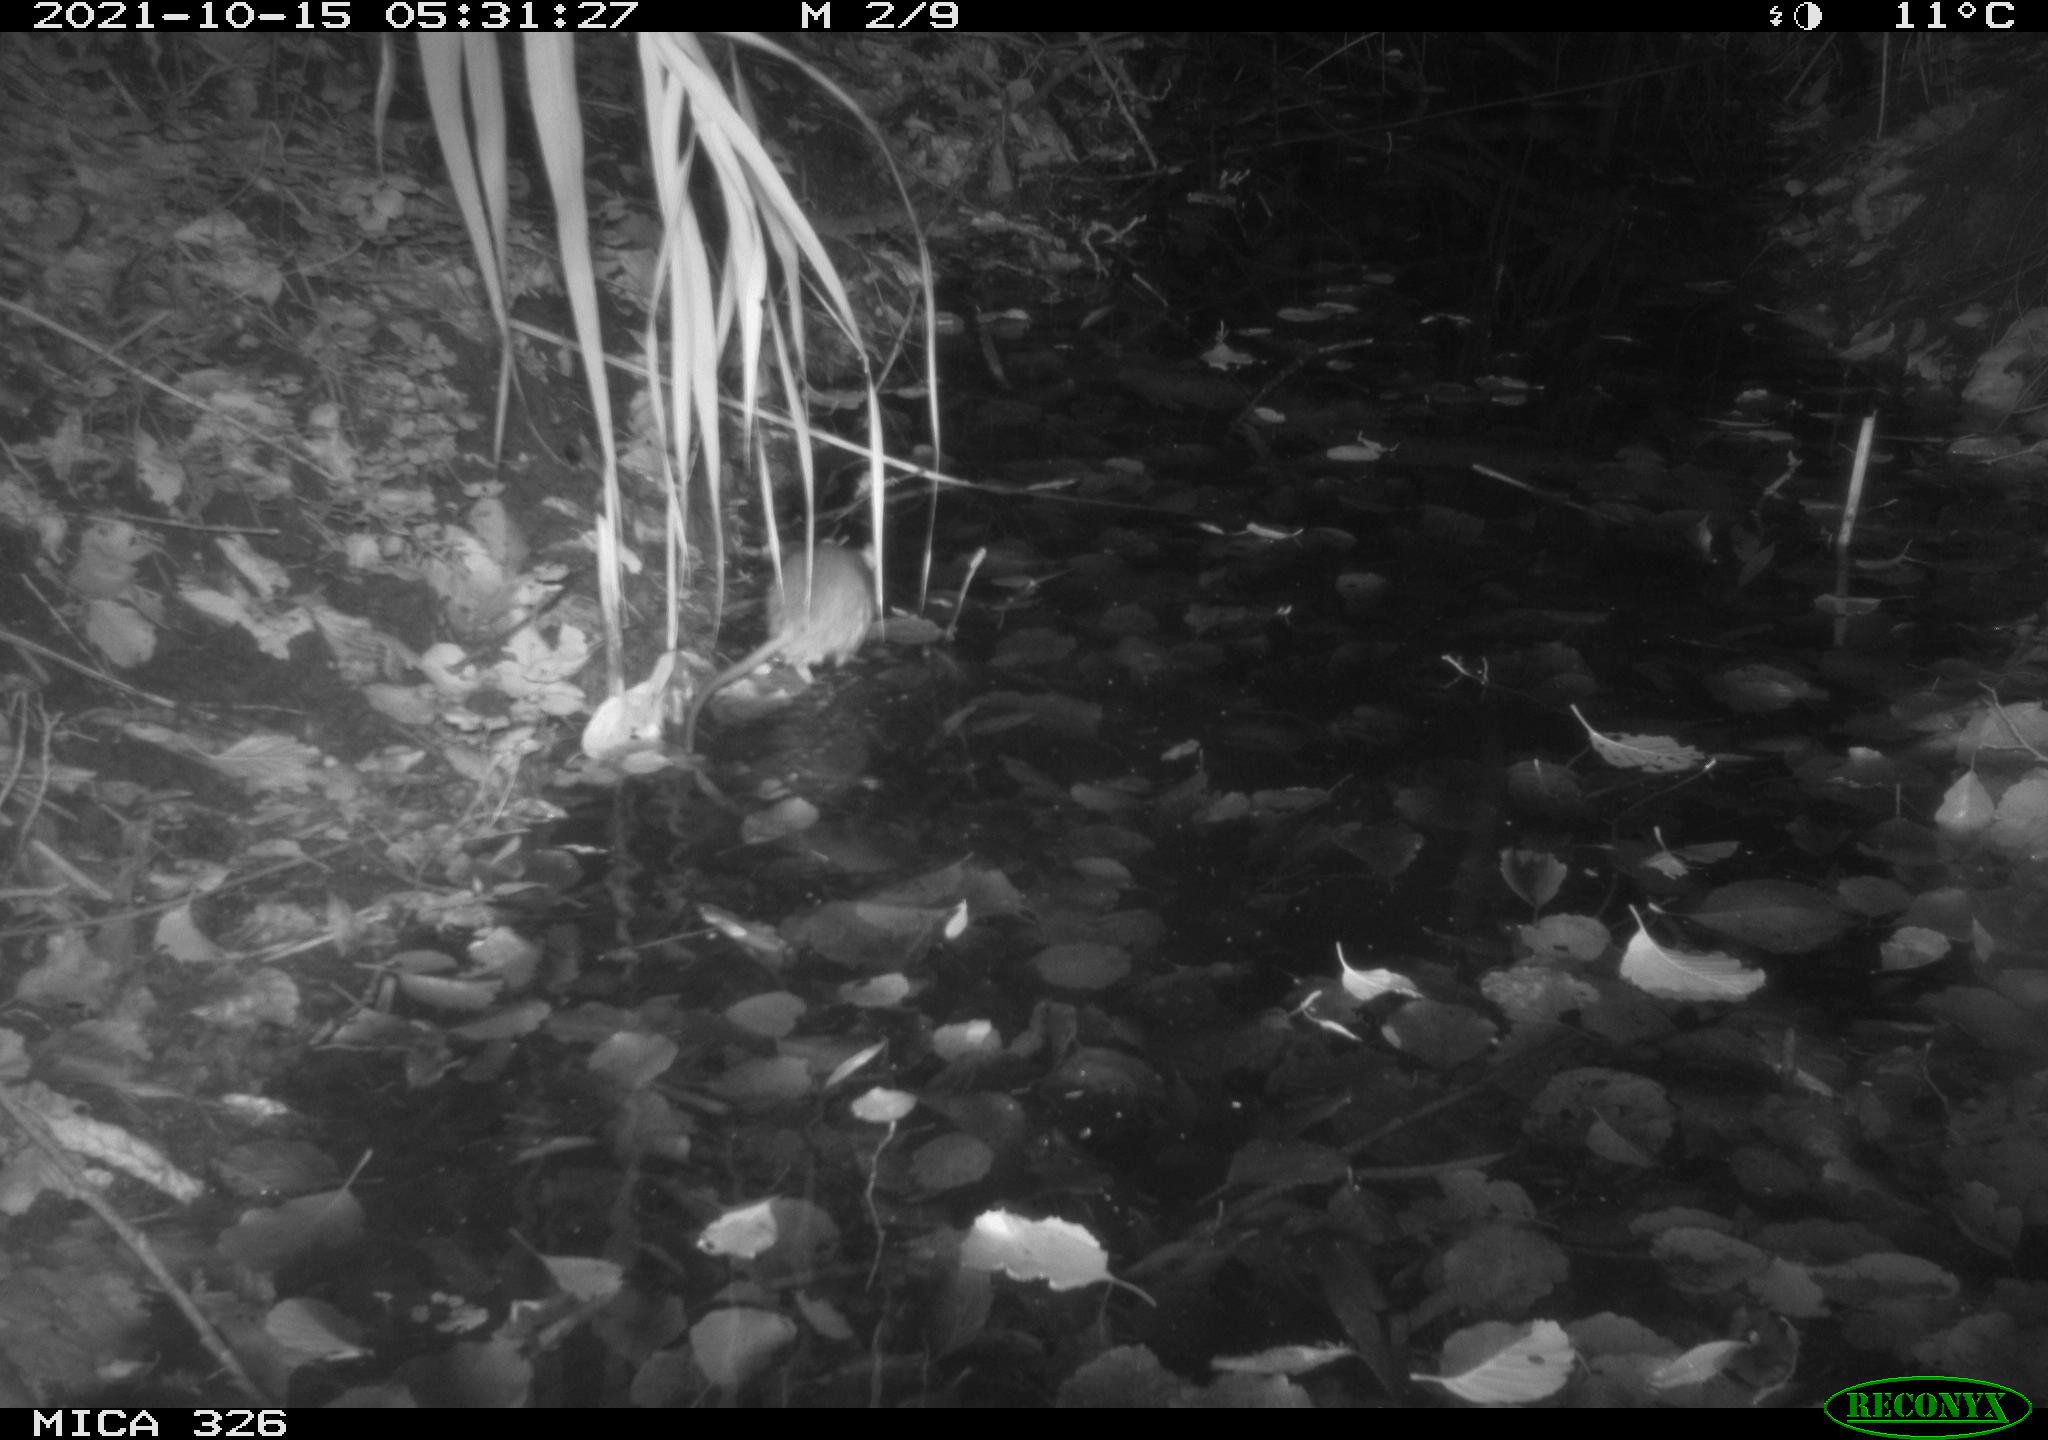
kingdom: Animalia
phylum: Chordata
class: Mammalia
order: Rodentia
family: Muridae
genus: Rattus
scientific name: Rattus norvegicus
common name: Brown rat
